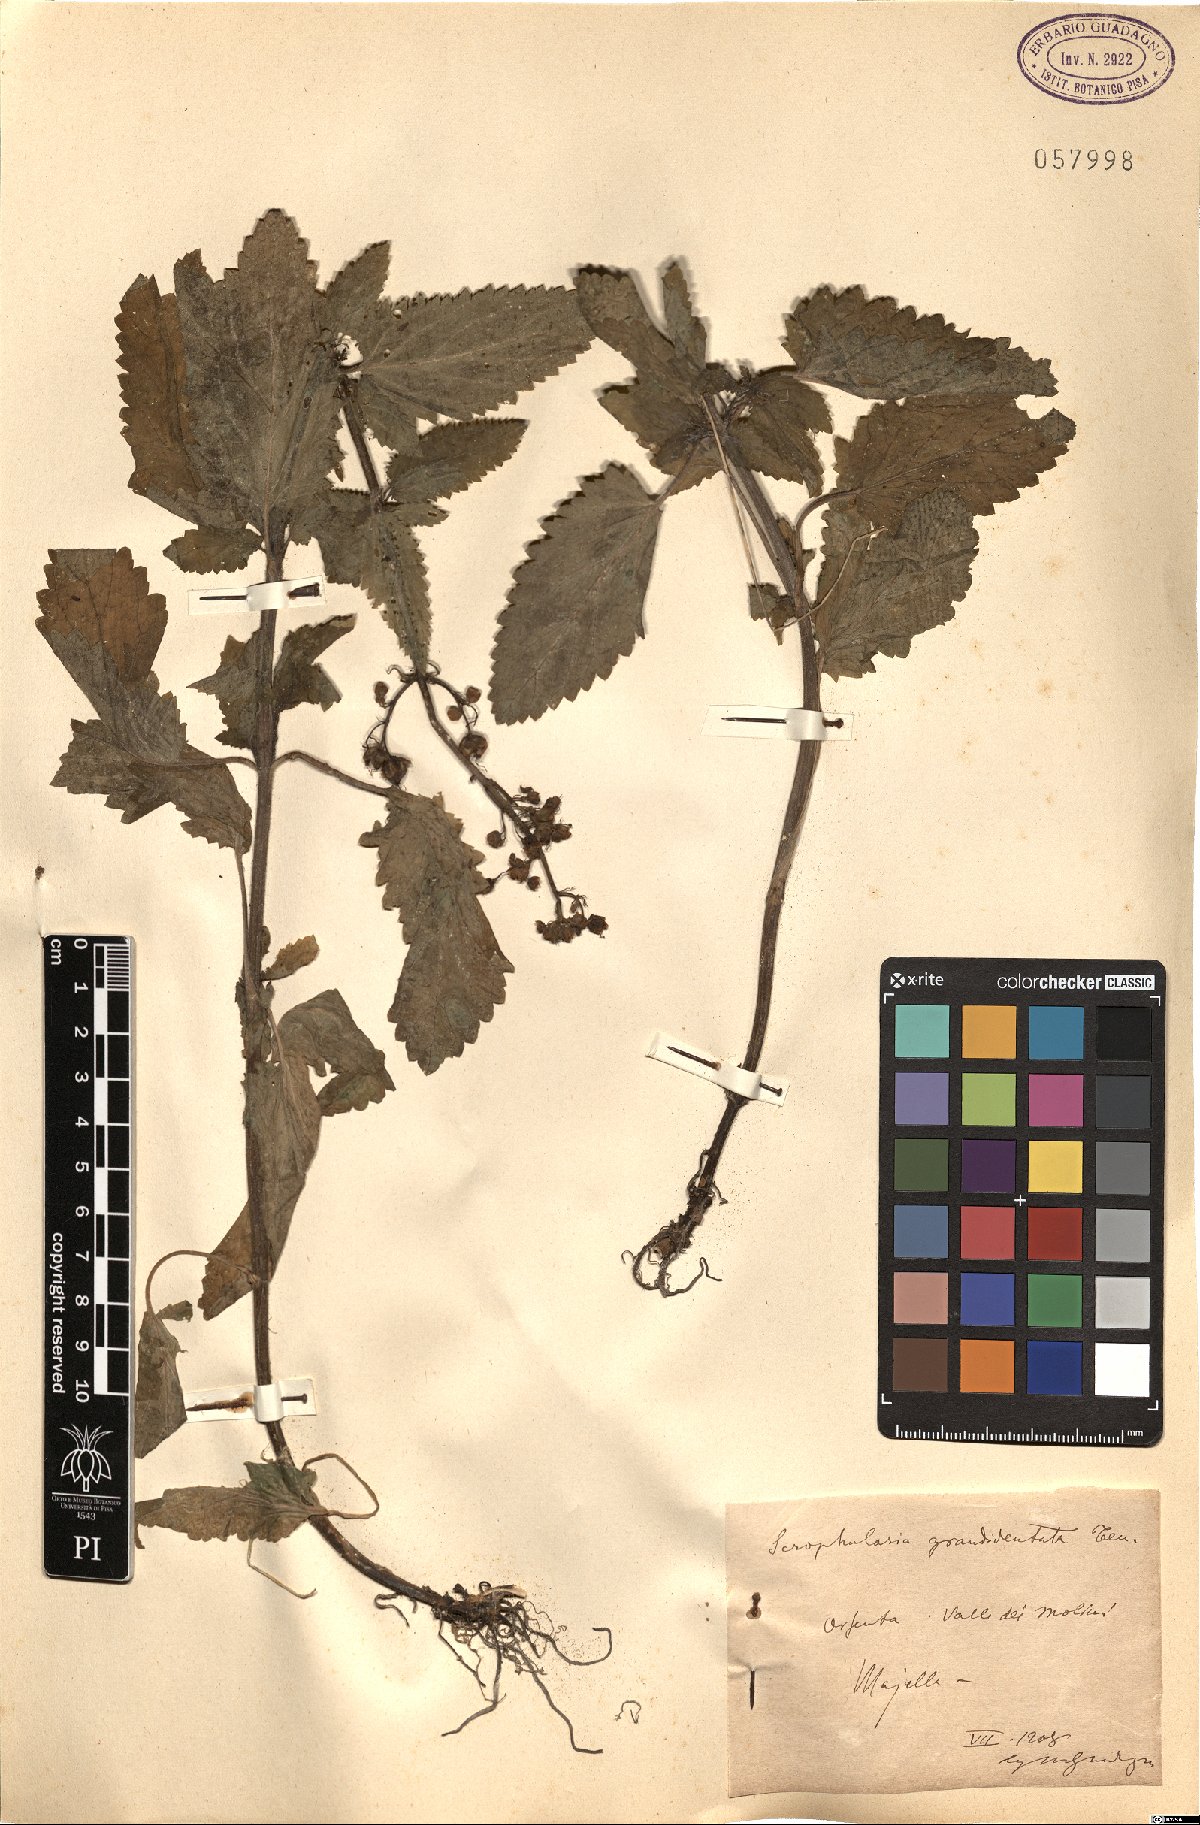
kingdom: Plantae
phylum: Tracheophyta
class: Magnoliopsida
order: Lamiales
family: Scrophulariaceae
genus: Scrophularia
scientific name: Scrophularia scopolii
